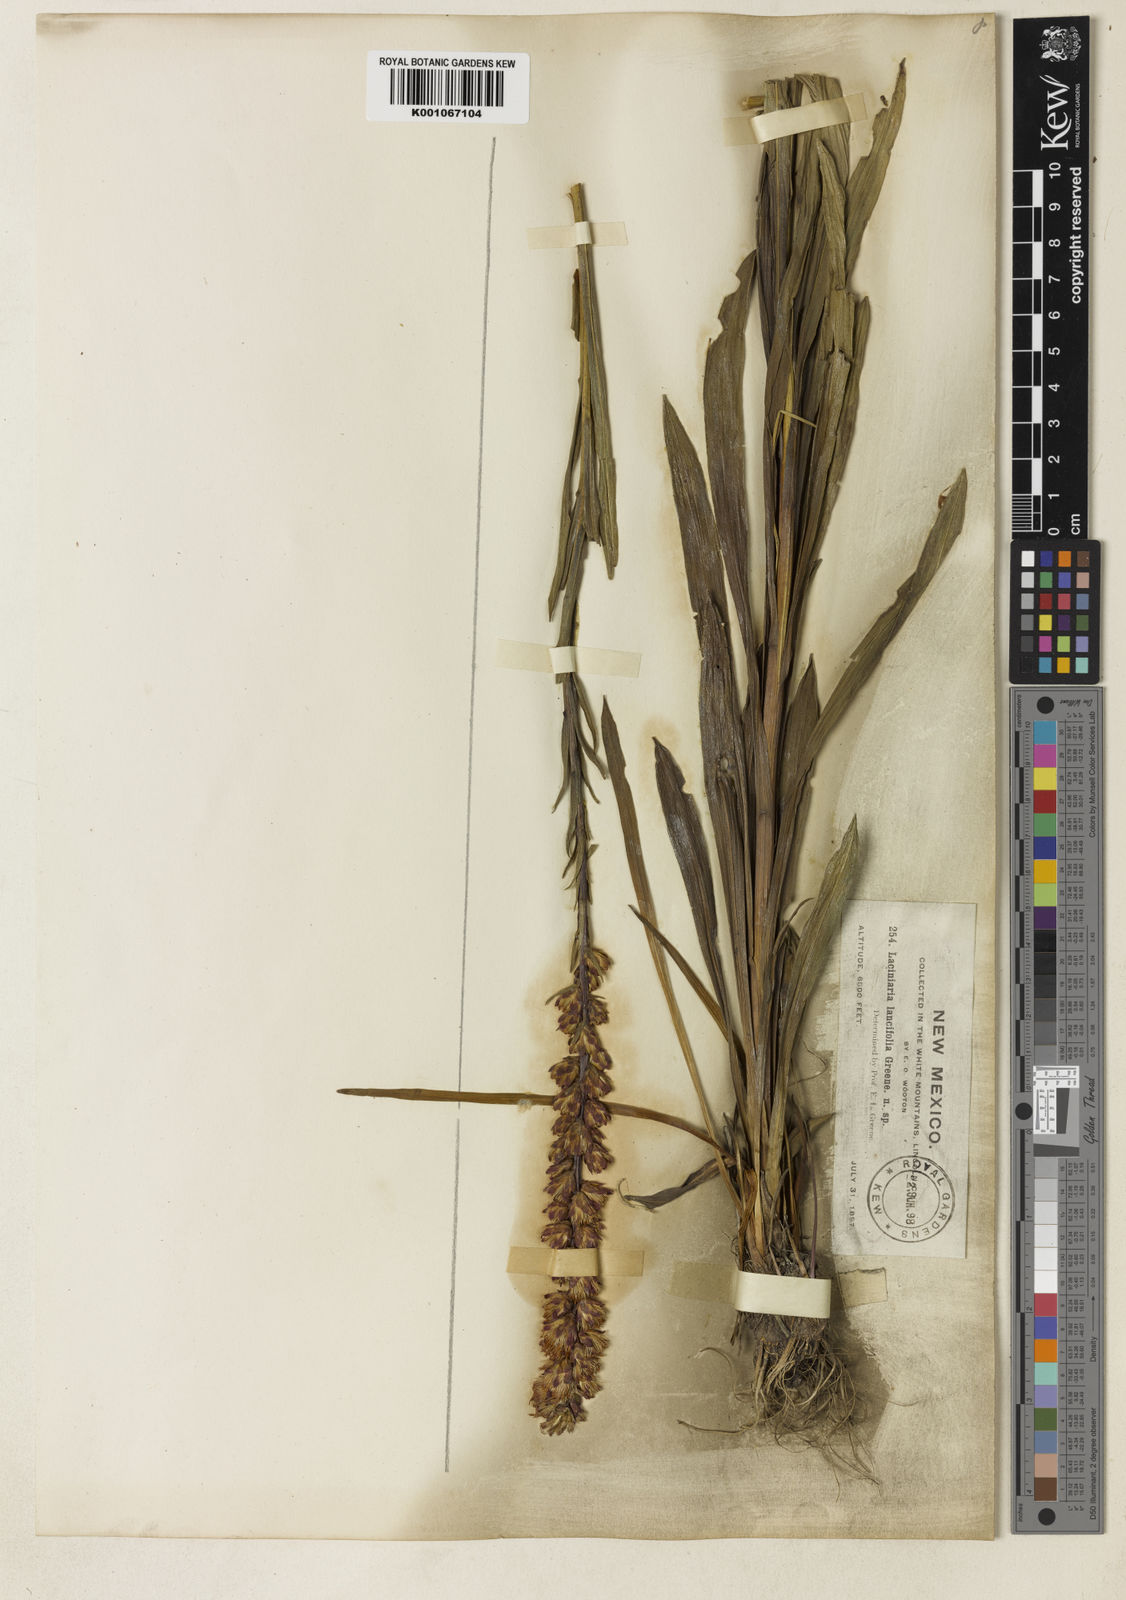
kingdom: Plantae
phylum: Tracheophyta
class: Magnoliopsida
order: Asterales
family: Asteraceae
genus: Liatris
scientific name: Liatris lancifolia
